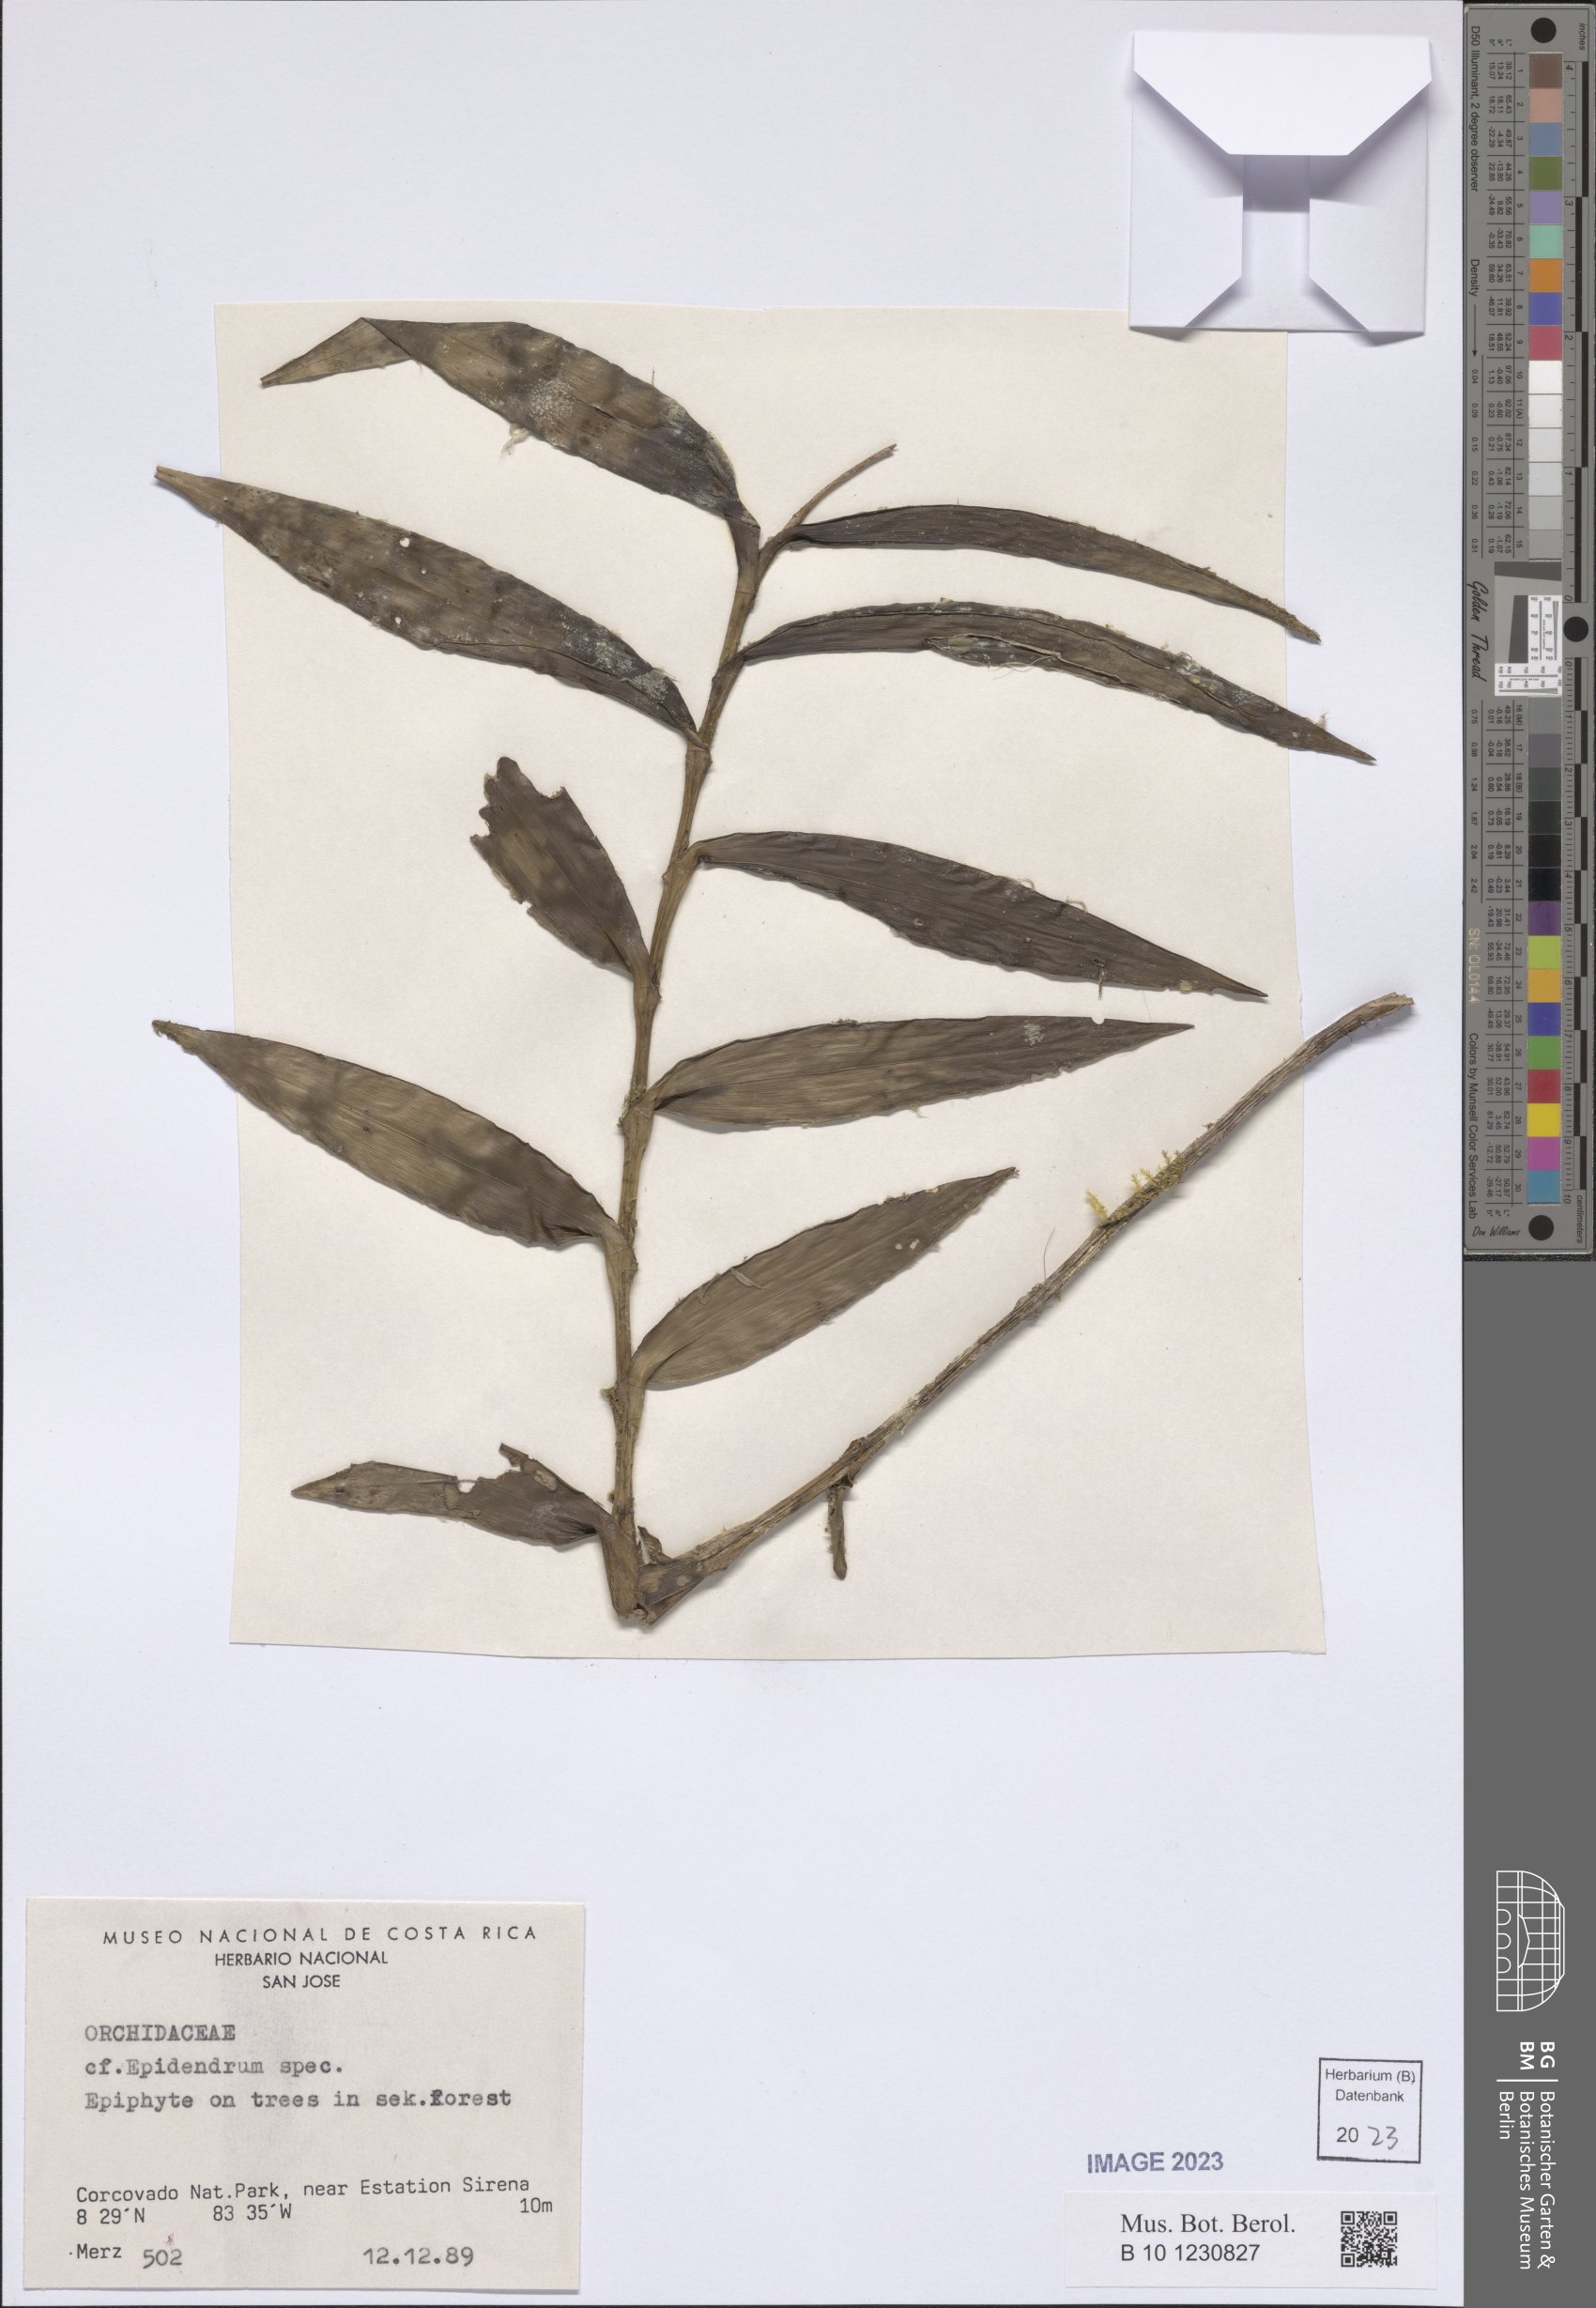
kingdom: Plantae
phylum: Tracheophyta
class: Liliopsida
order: Asparagales
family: Orchidaceae
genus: Epidendrum
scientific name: Epidendrum
